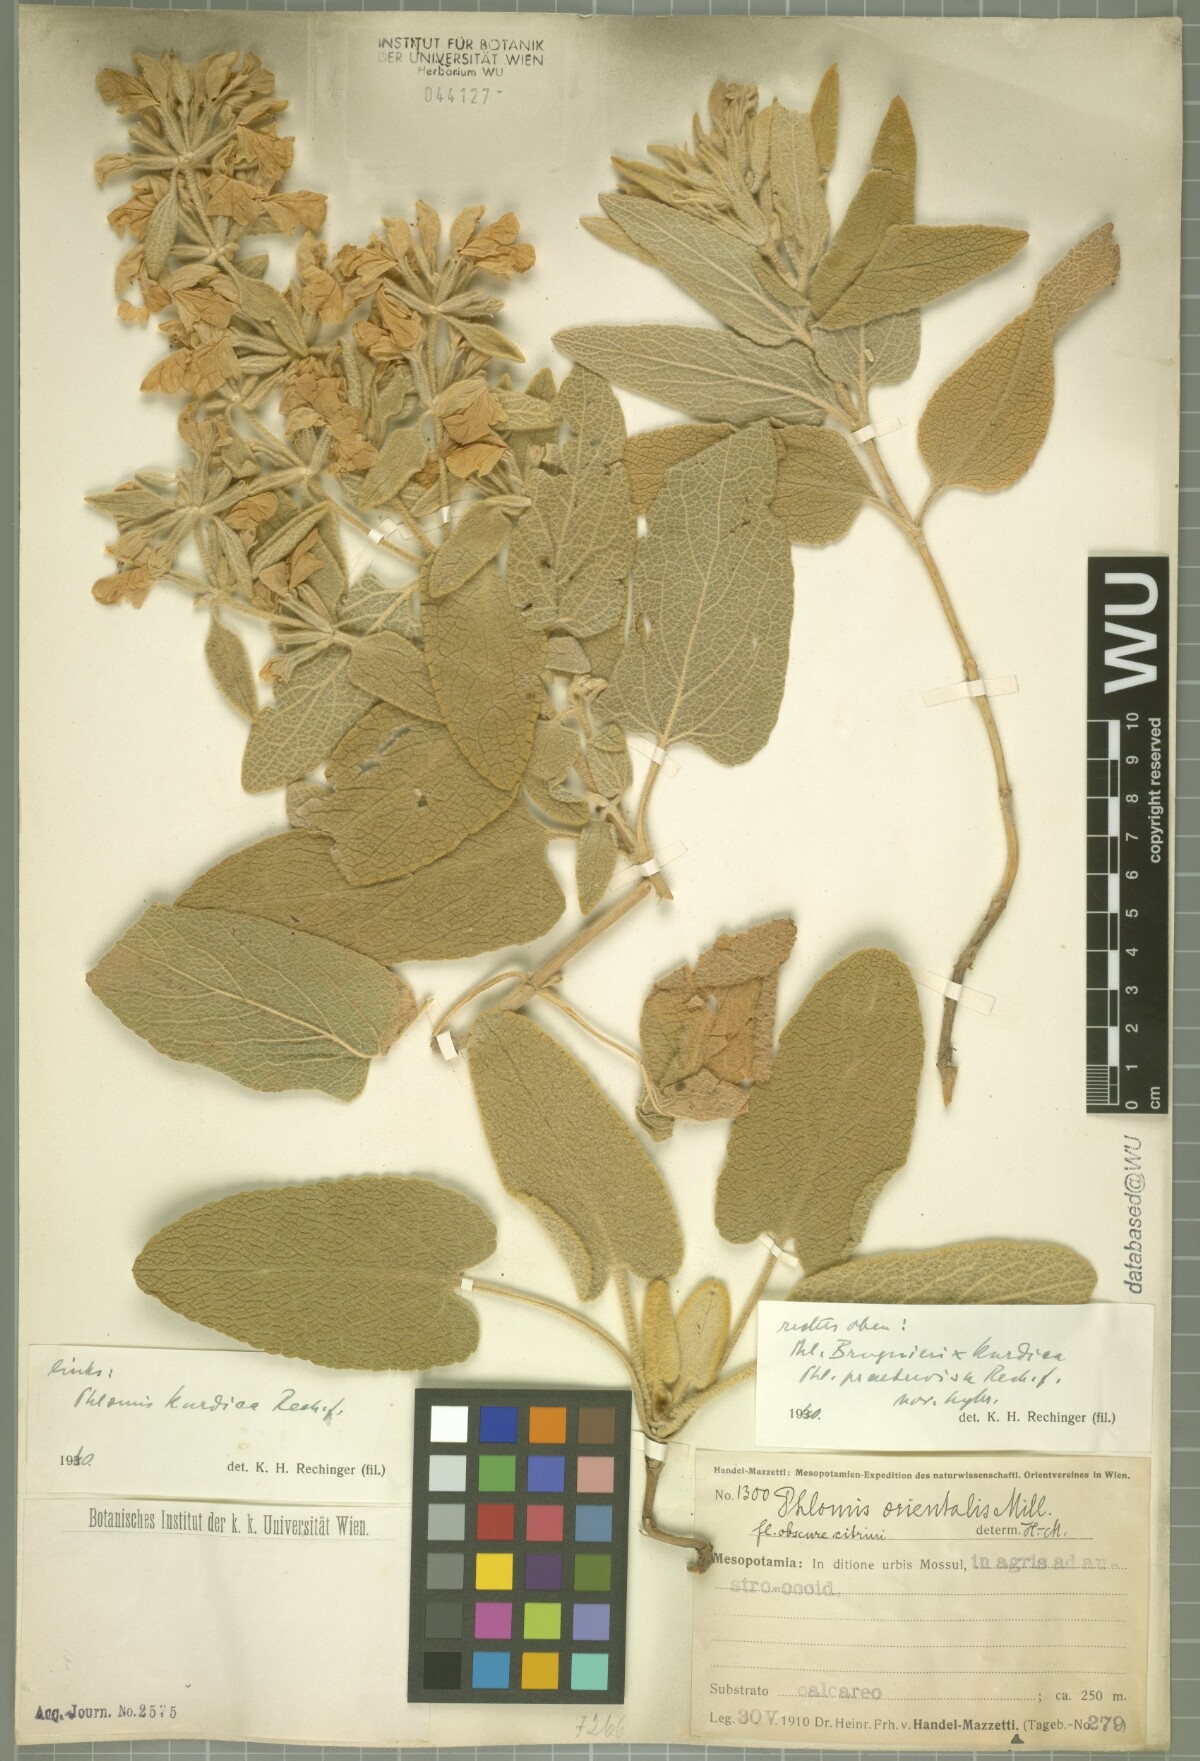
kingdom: Plantae
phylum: Tracheophyta
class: Magnoliopsida
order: Lamiales
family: Lamiaceae
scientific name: Lamiaceae
